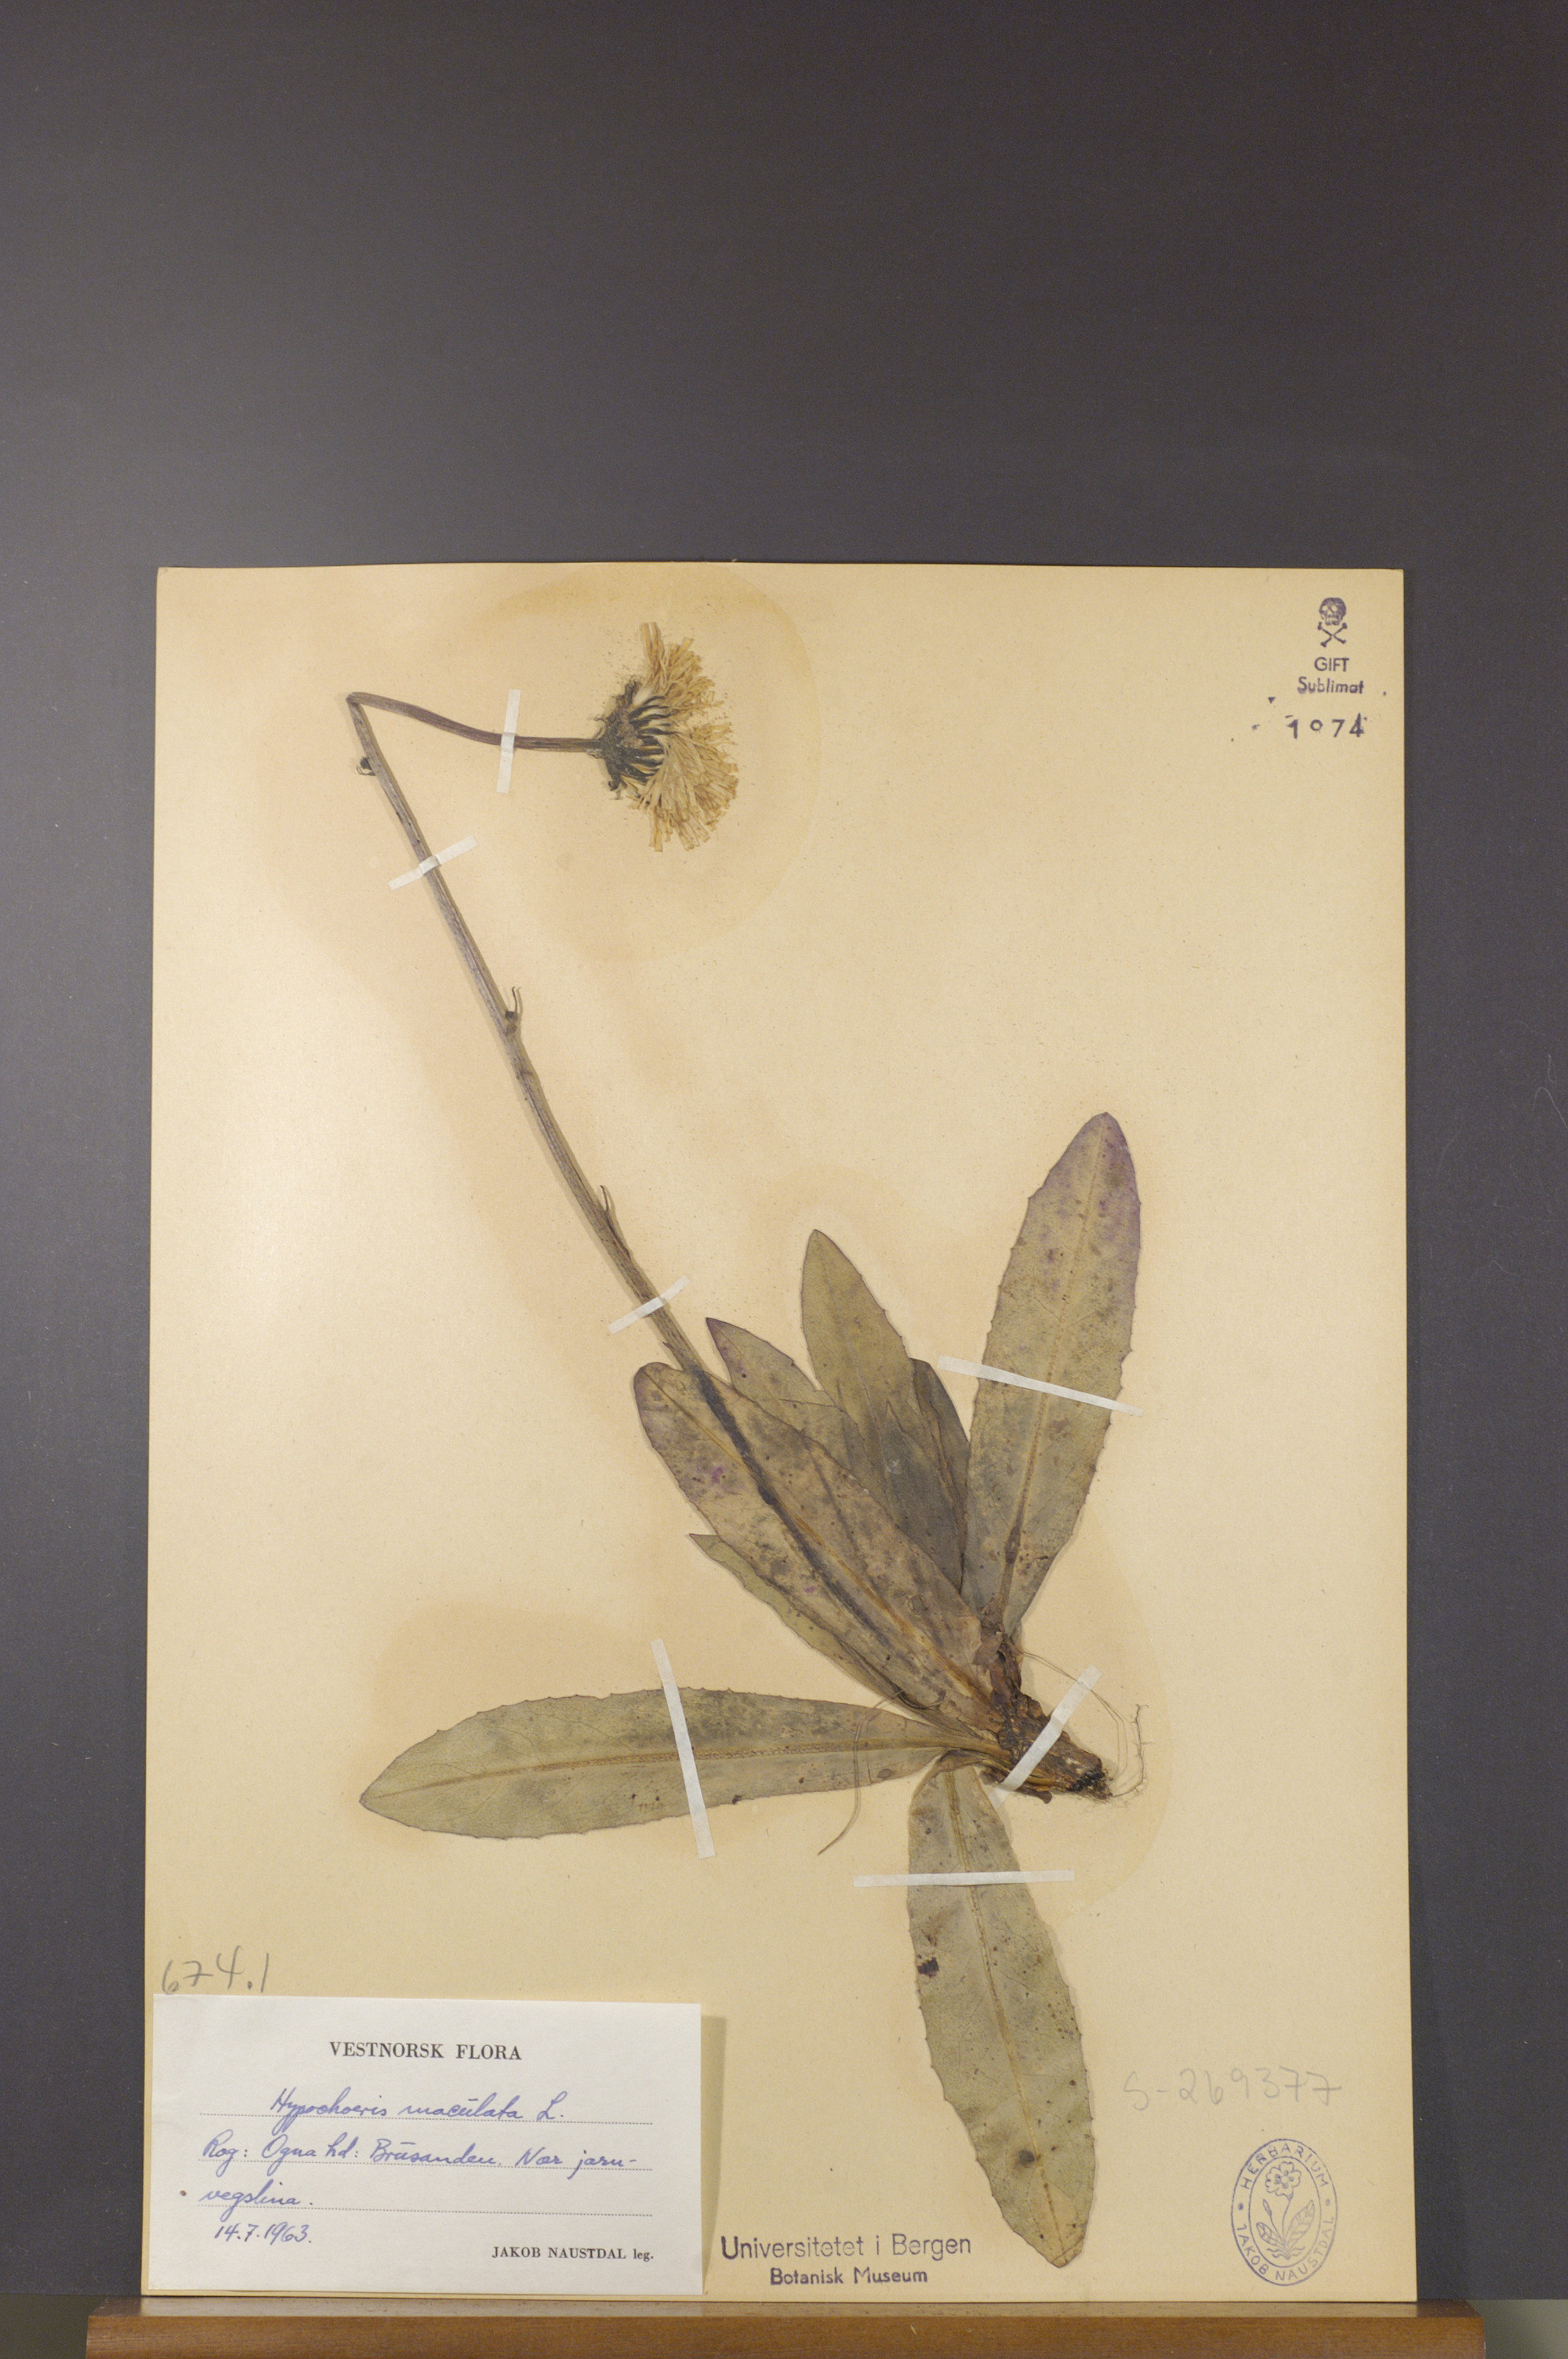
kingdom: Plantae
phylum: Tracheophyta
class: Magnoliopsida
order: Asterales
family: Asteraceae
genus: Trommsdorffia
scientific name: Trommsdorffia maculata
